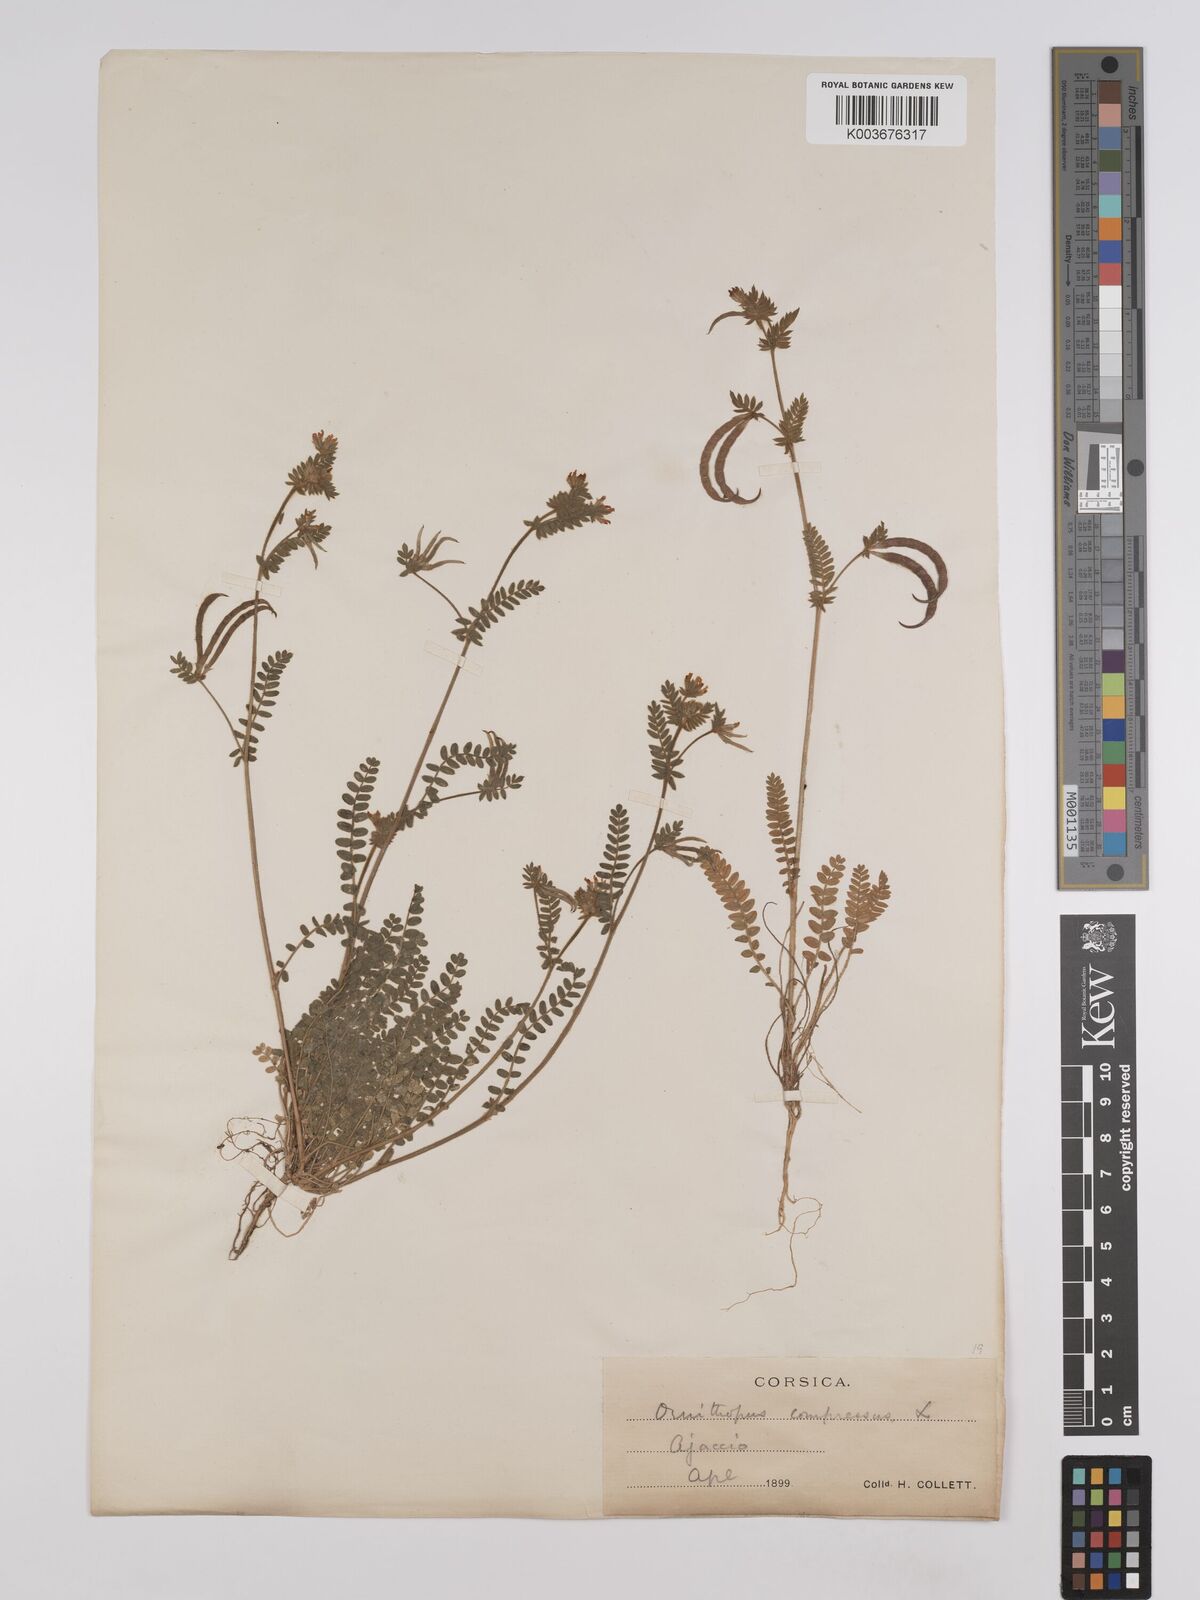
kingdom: Plantae
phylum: Tracheophyta
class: Magnoliopsida
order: Fabales
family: Fabaceae
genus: Ornithopus
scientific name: Ornithopus compressus
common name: Yellow serradella
